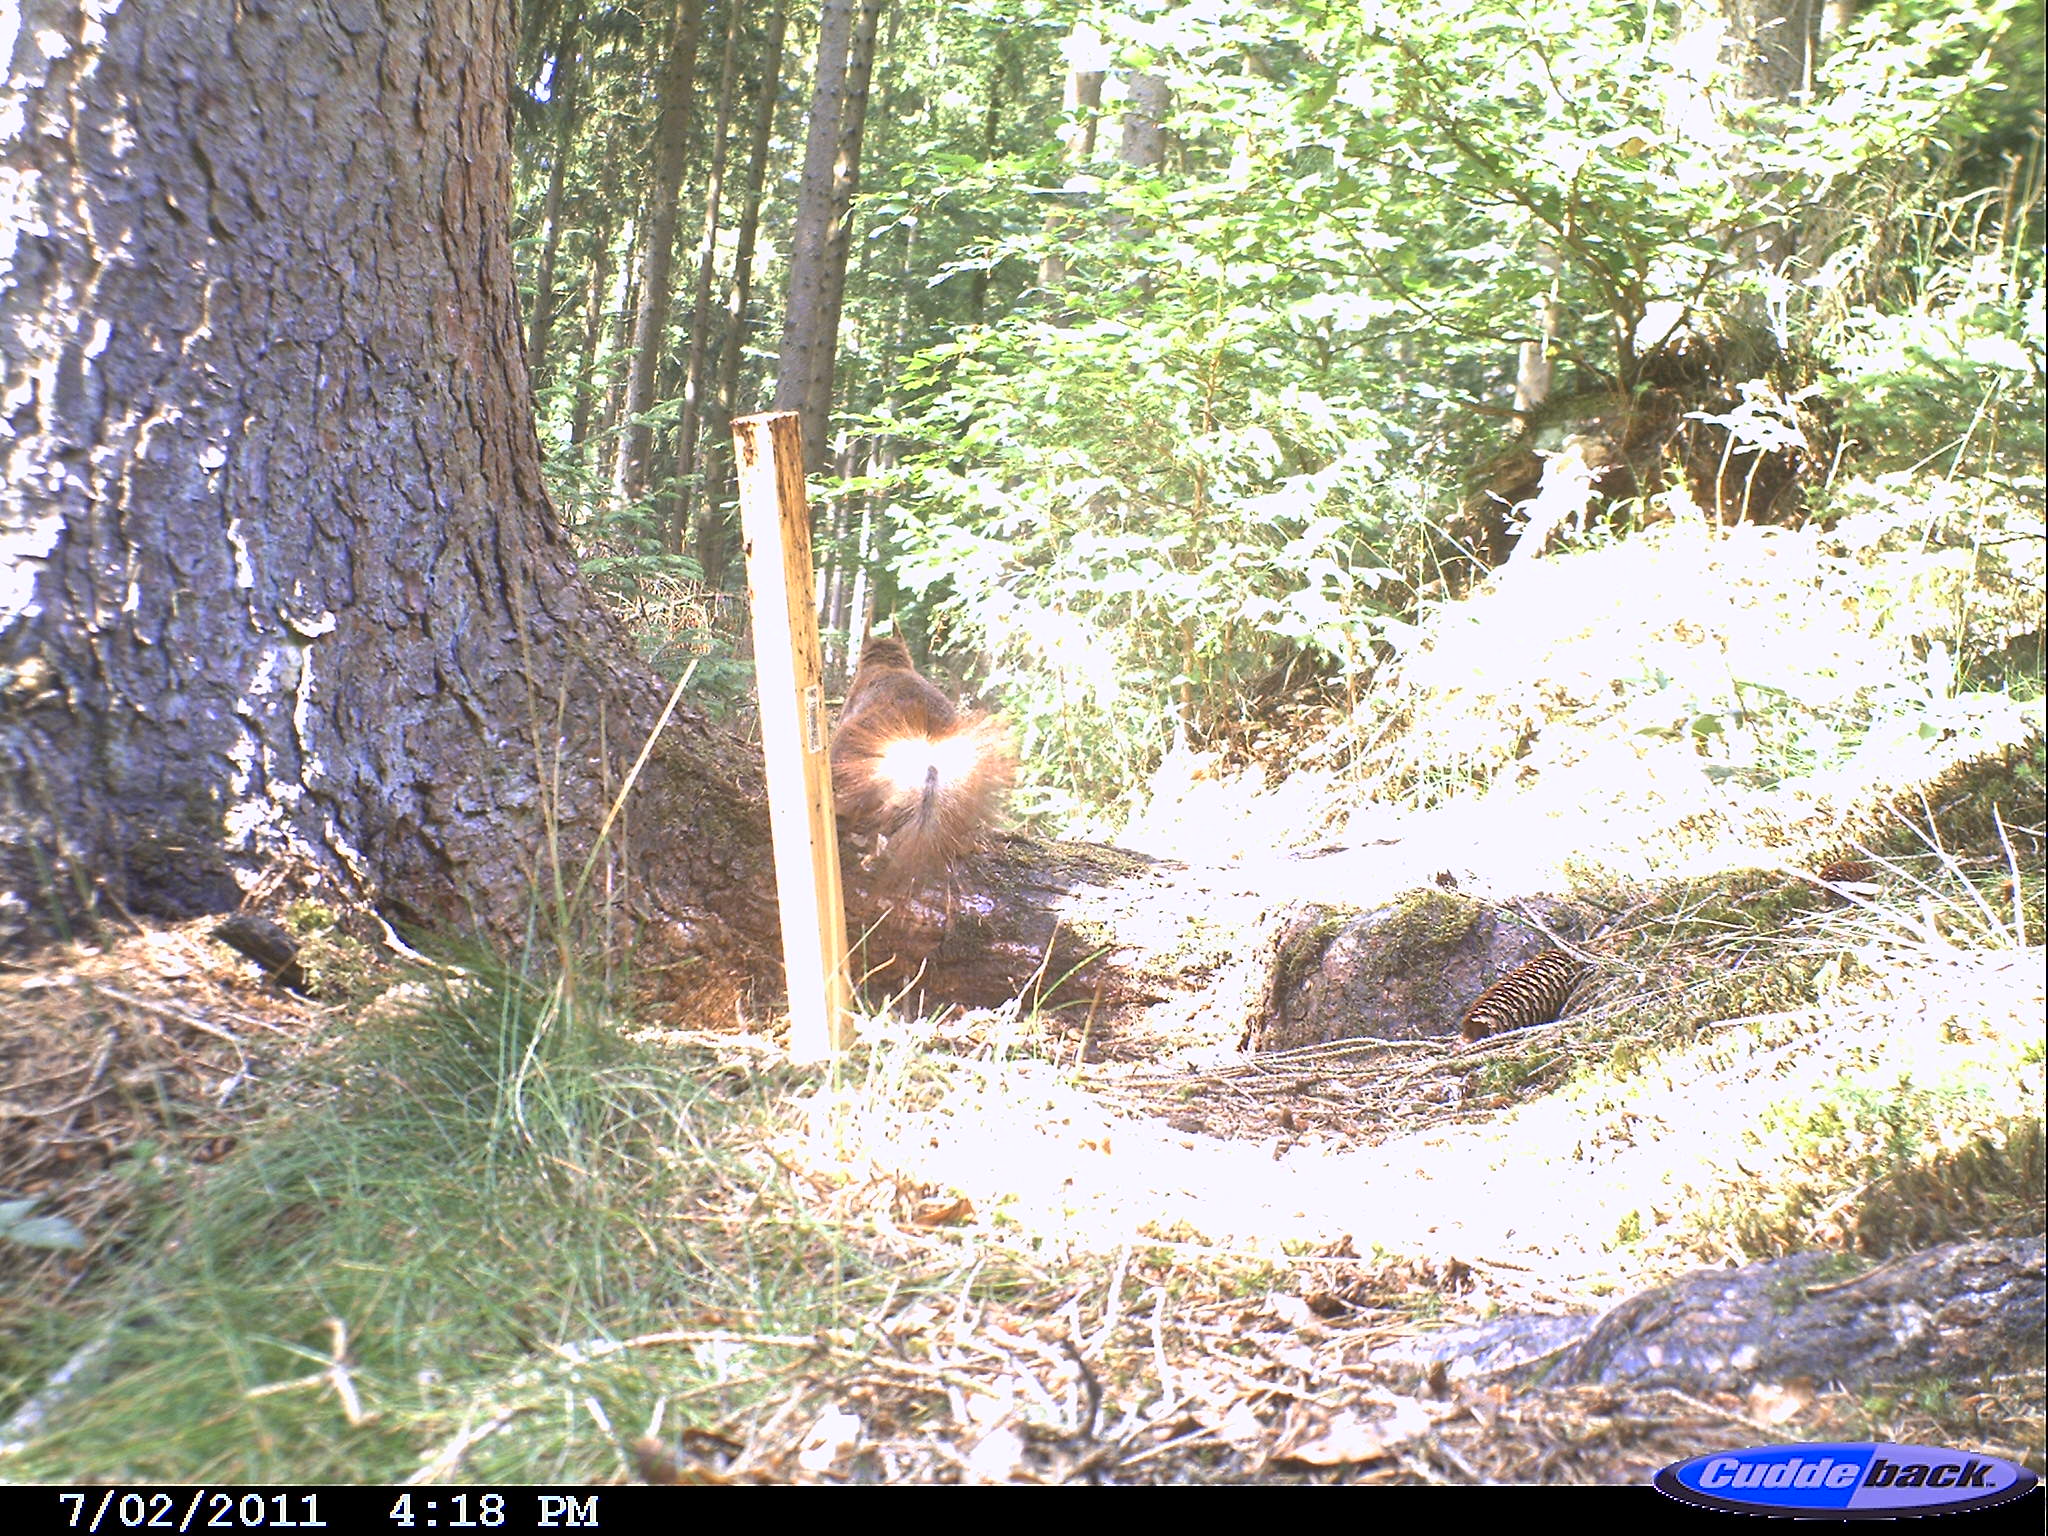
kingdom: Animalia
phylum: Chordata
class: Mammalia
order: Rodentia
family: Sciuridae
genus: Sciurus
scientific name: Sciurus vulgaris
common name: Eurasian red squirrel
